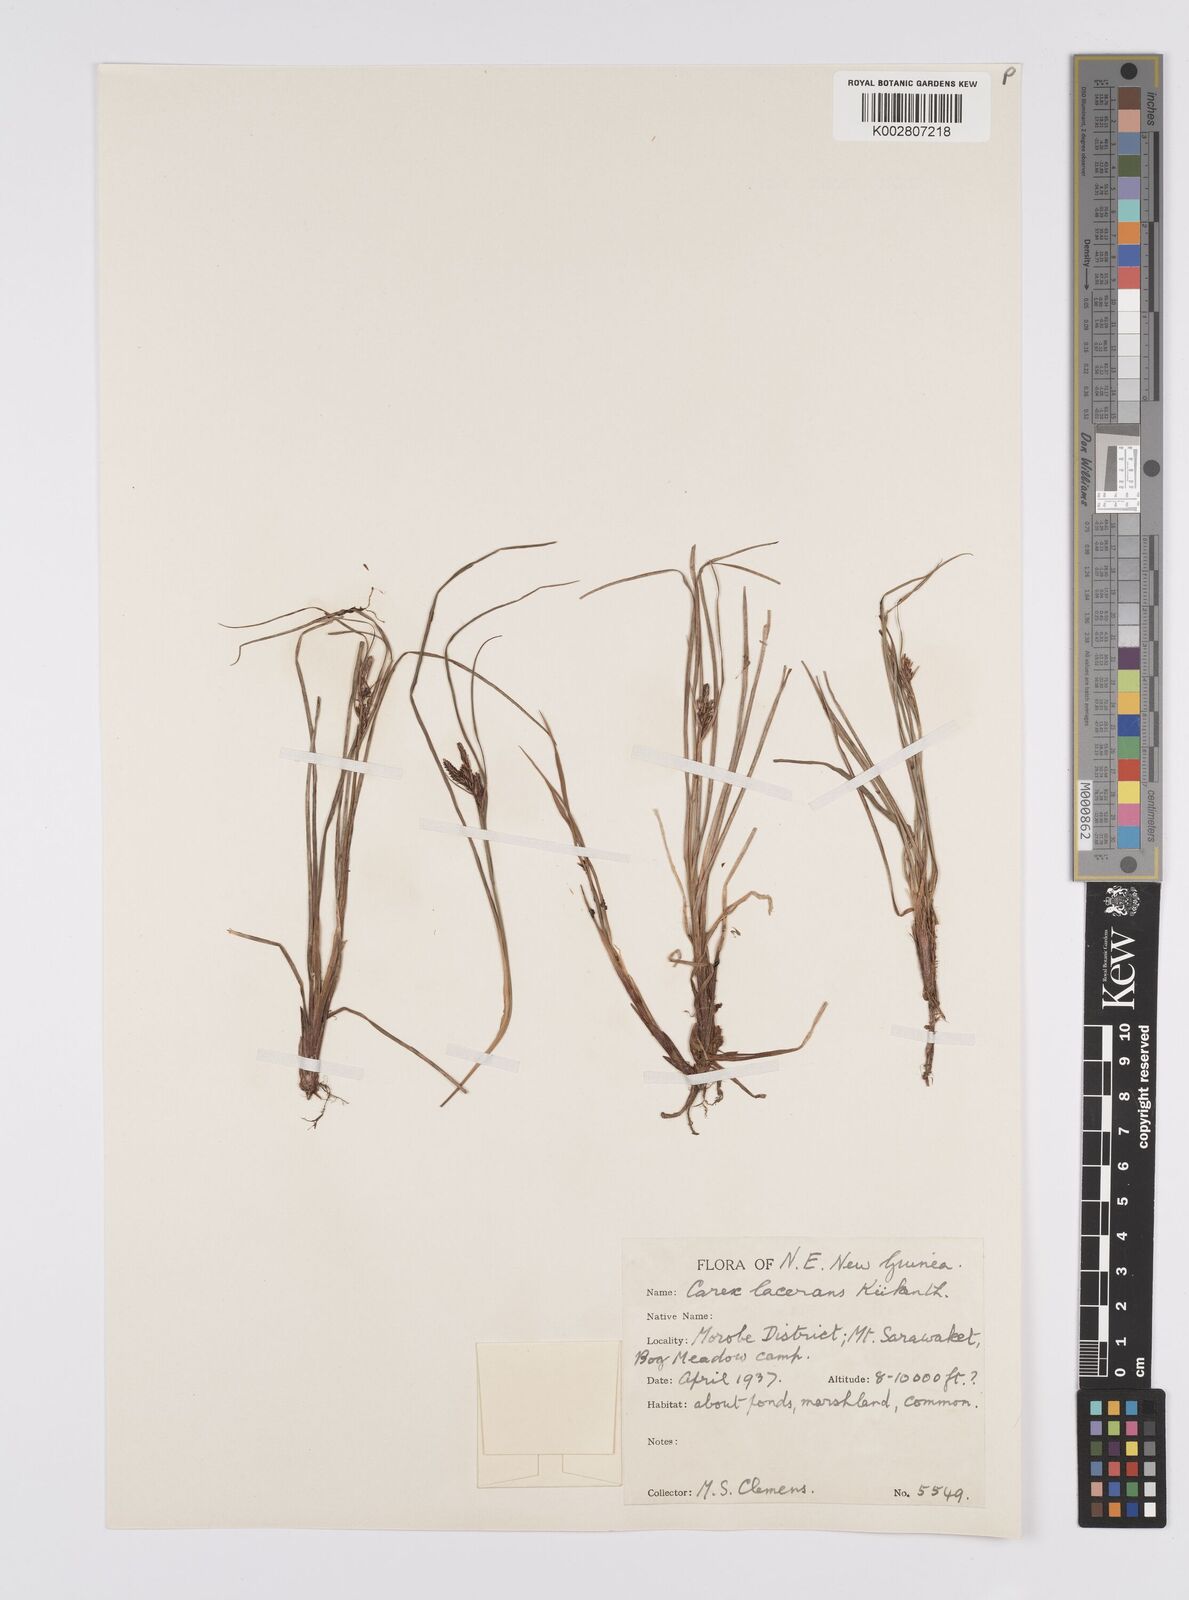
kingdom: Plantae
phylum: Tracheophyta
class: Liliopsida
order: Poales
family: Cyperaceae
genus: Carex
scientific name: Carex gaudichaudiana
